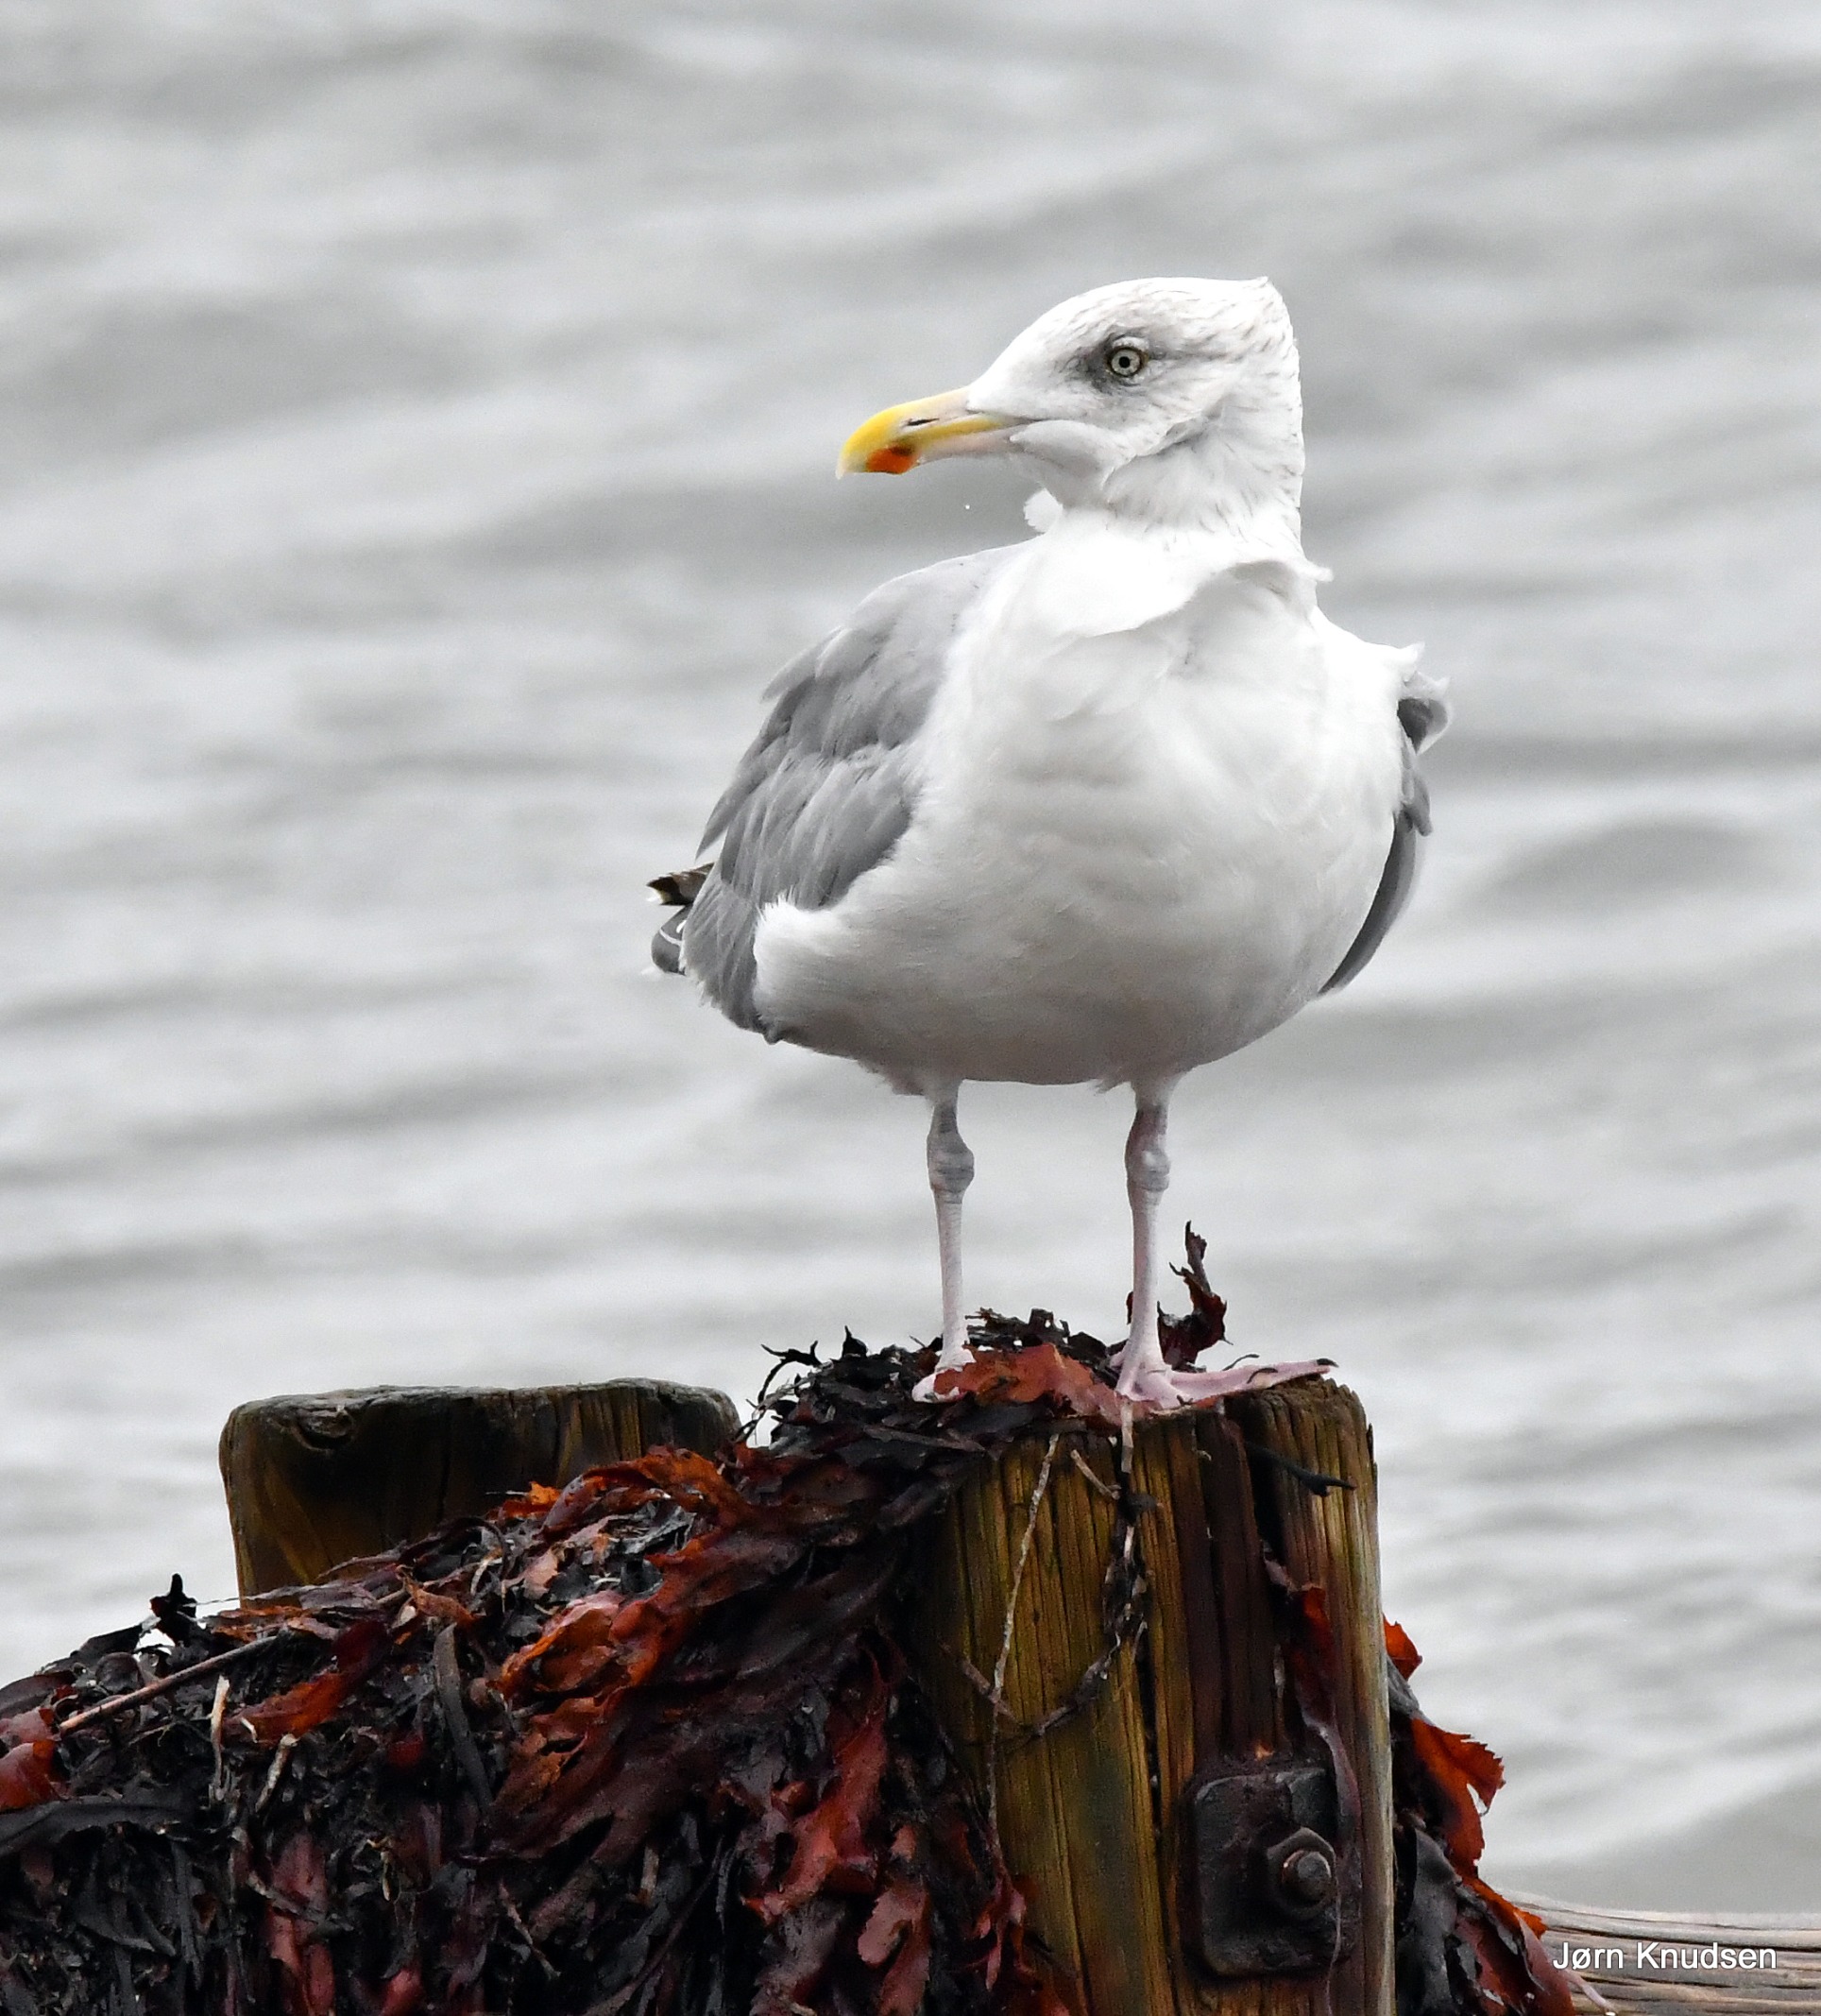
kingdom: Animalia
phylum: Chordata
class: Aves
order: Charadriiformes
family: Laridae
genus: Larus
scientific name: Larus argentatus
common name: Sølvmåge
